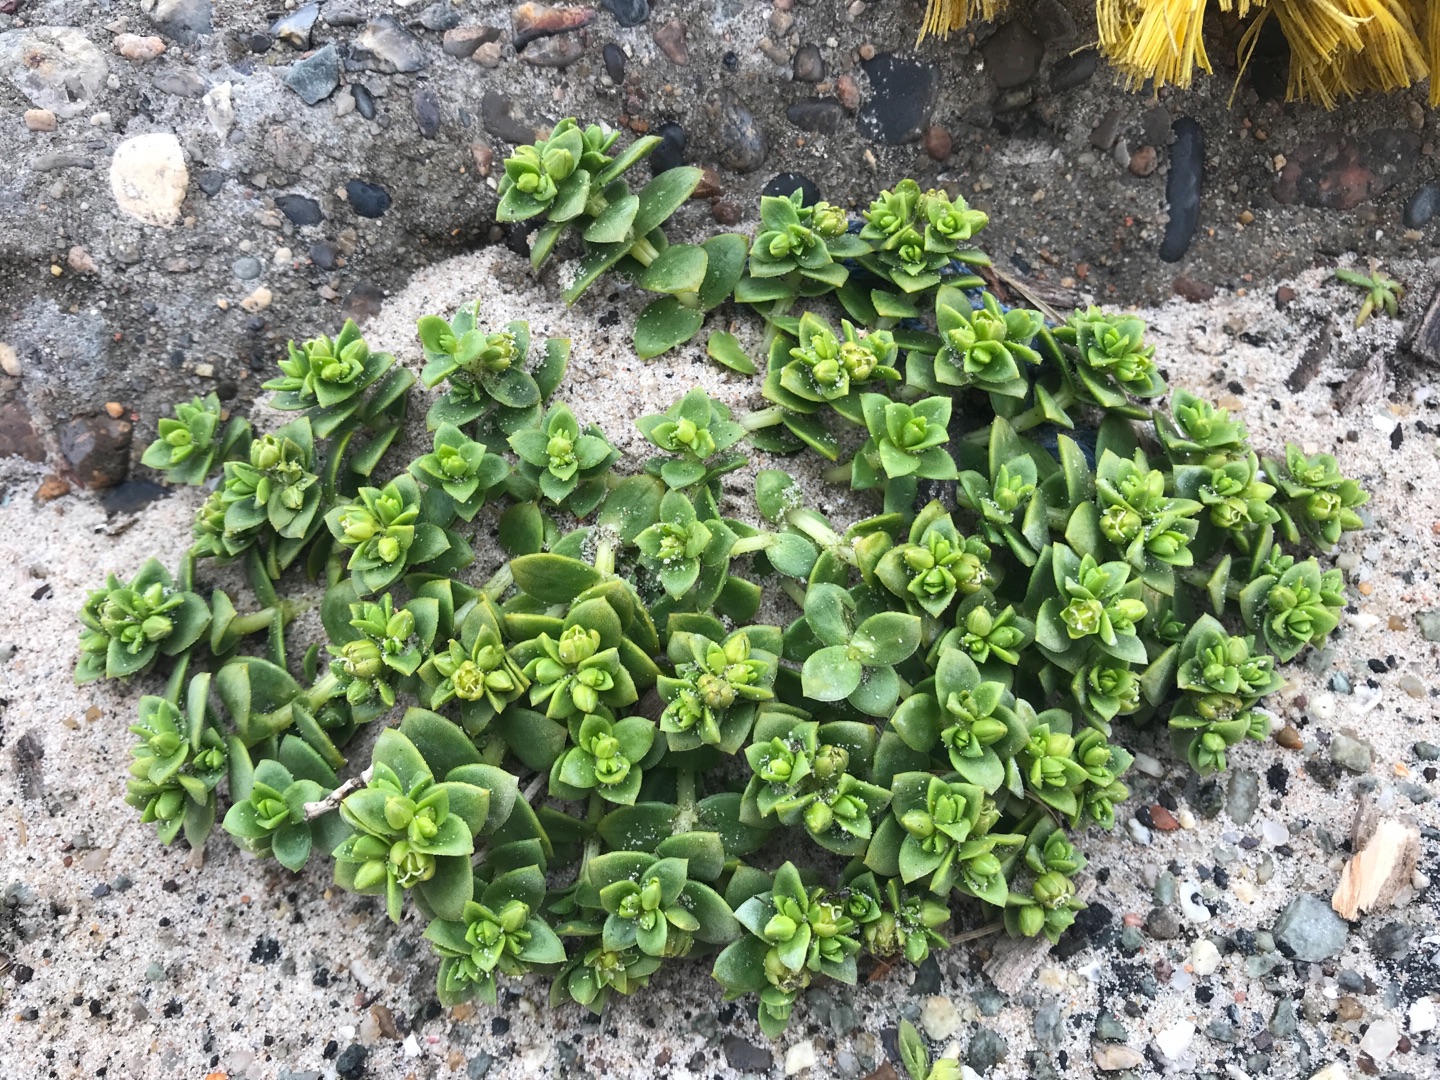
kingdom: Plantae
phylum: Tracheophyta
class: Magnoliopsida
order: Caryophyllales
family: Caryophyllaceae
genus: Honckenya
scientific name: Honckenya peploides
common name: Strandarve
